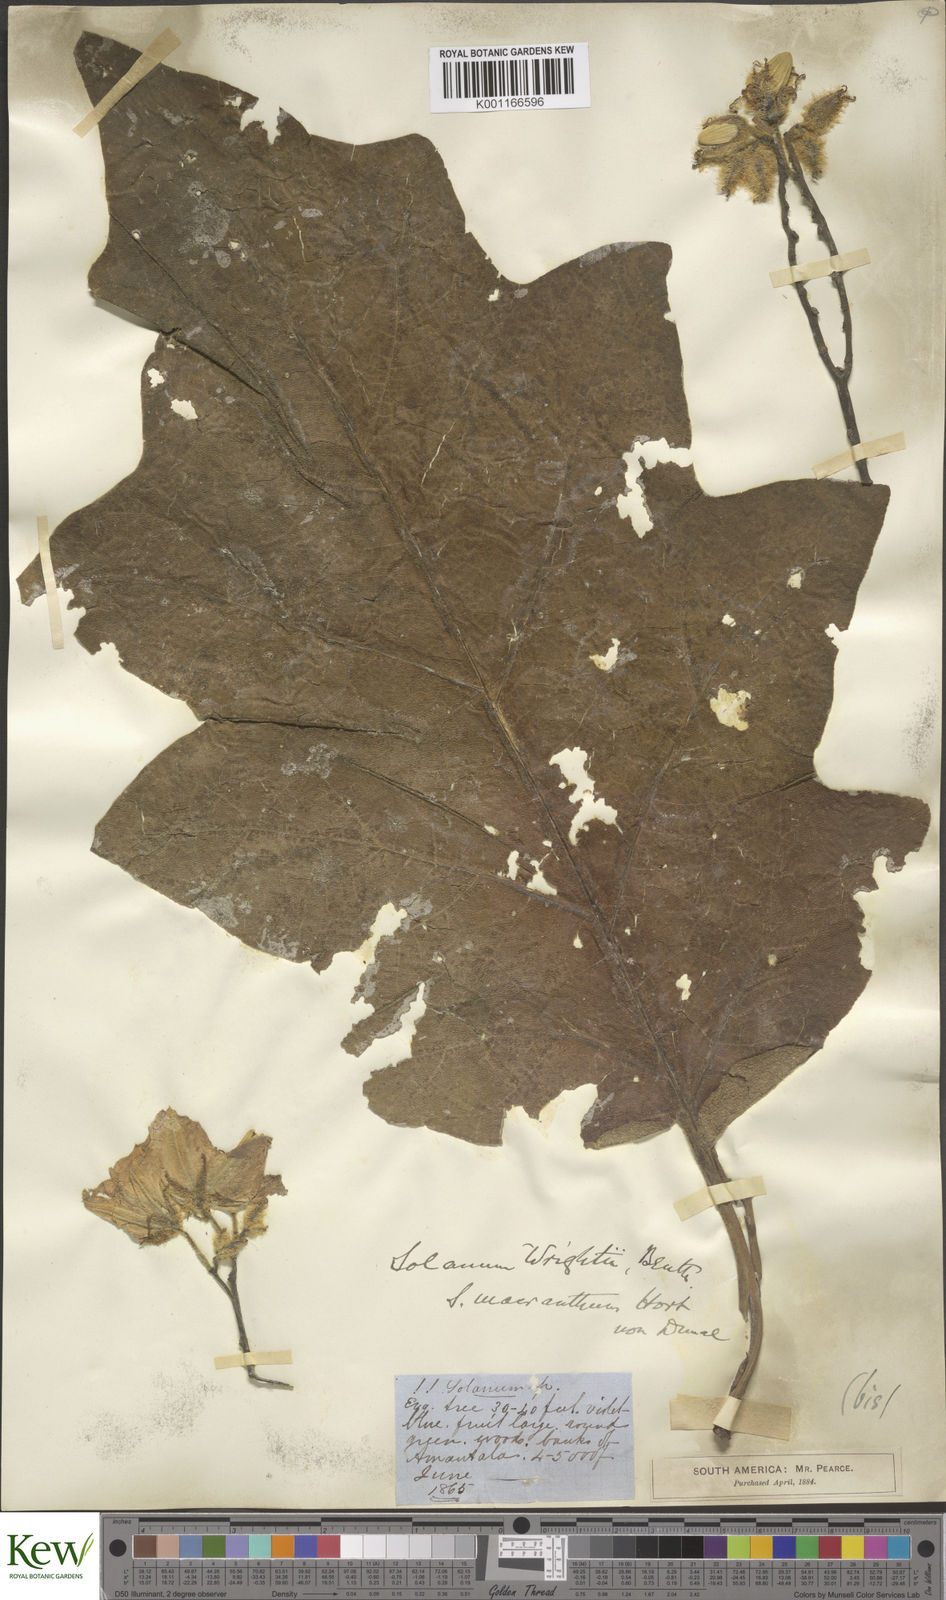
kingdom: Plantae
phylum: Tracheophyta
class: Magnoliopsida
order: Solanales
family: Solanaceae
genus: Solanum
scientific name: Solanum wrightii
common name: Brazilian potato-tree
